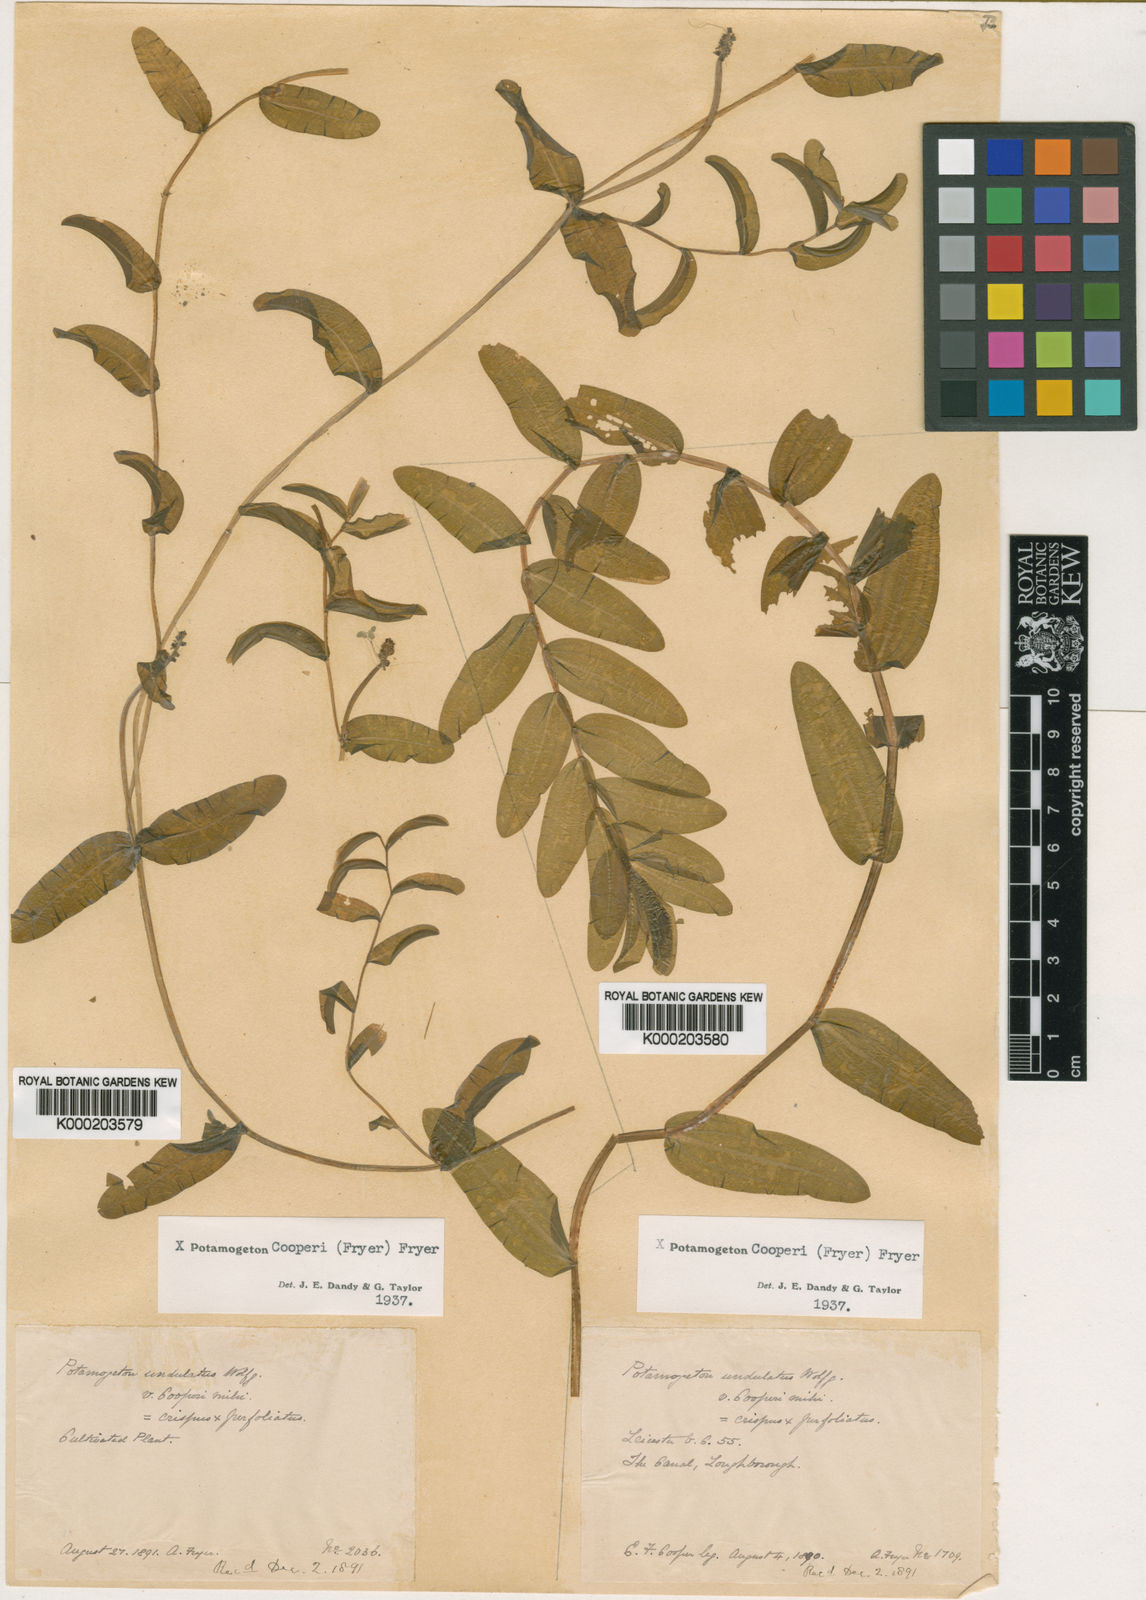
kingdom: Plantae
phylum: Tracheophyta
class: Liliopsida
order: Alismatales
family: Potamogetonaceae
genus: Potamogeton
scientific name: Potamogeton perfoliatus
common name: Perfoliate pondweed
